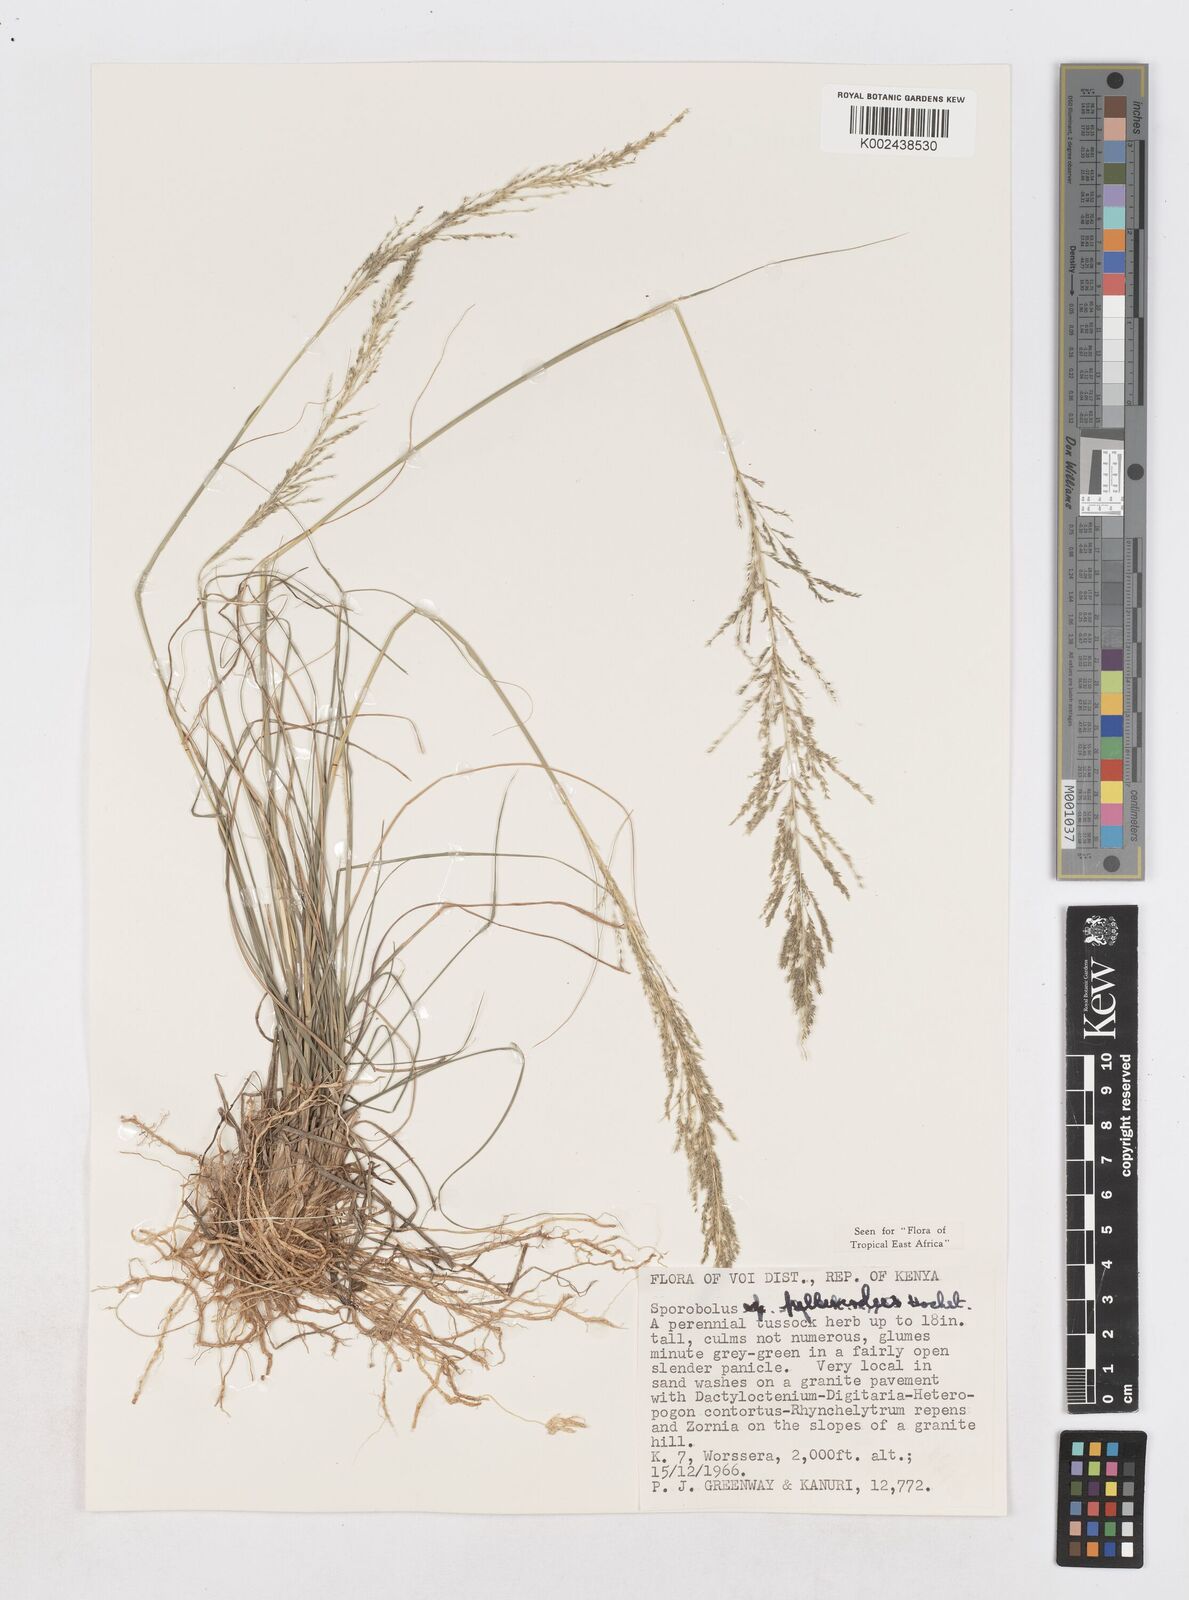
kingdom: Plantae
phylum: Tracheophyta
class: Liliopsida
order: Poales
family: Poaceae
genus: Sporobolus
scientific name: Sporobolus pellucidus
